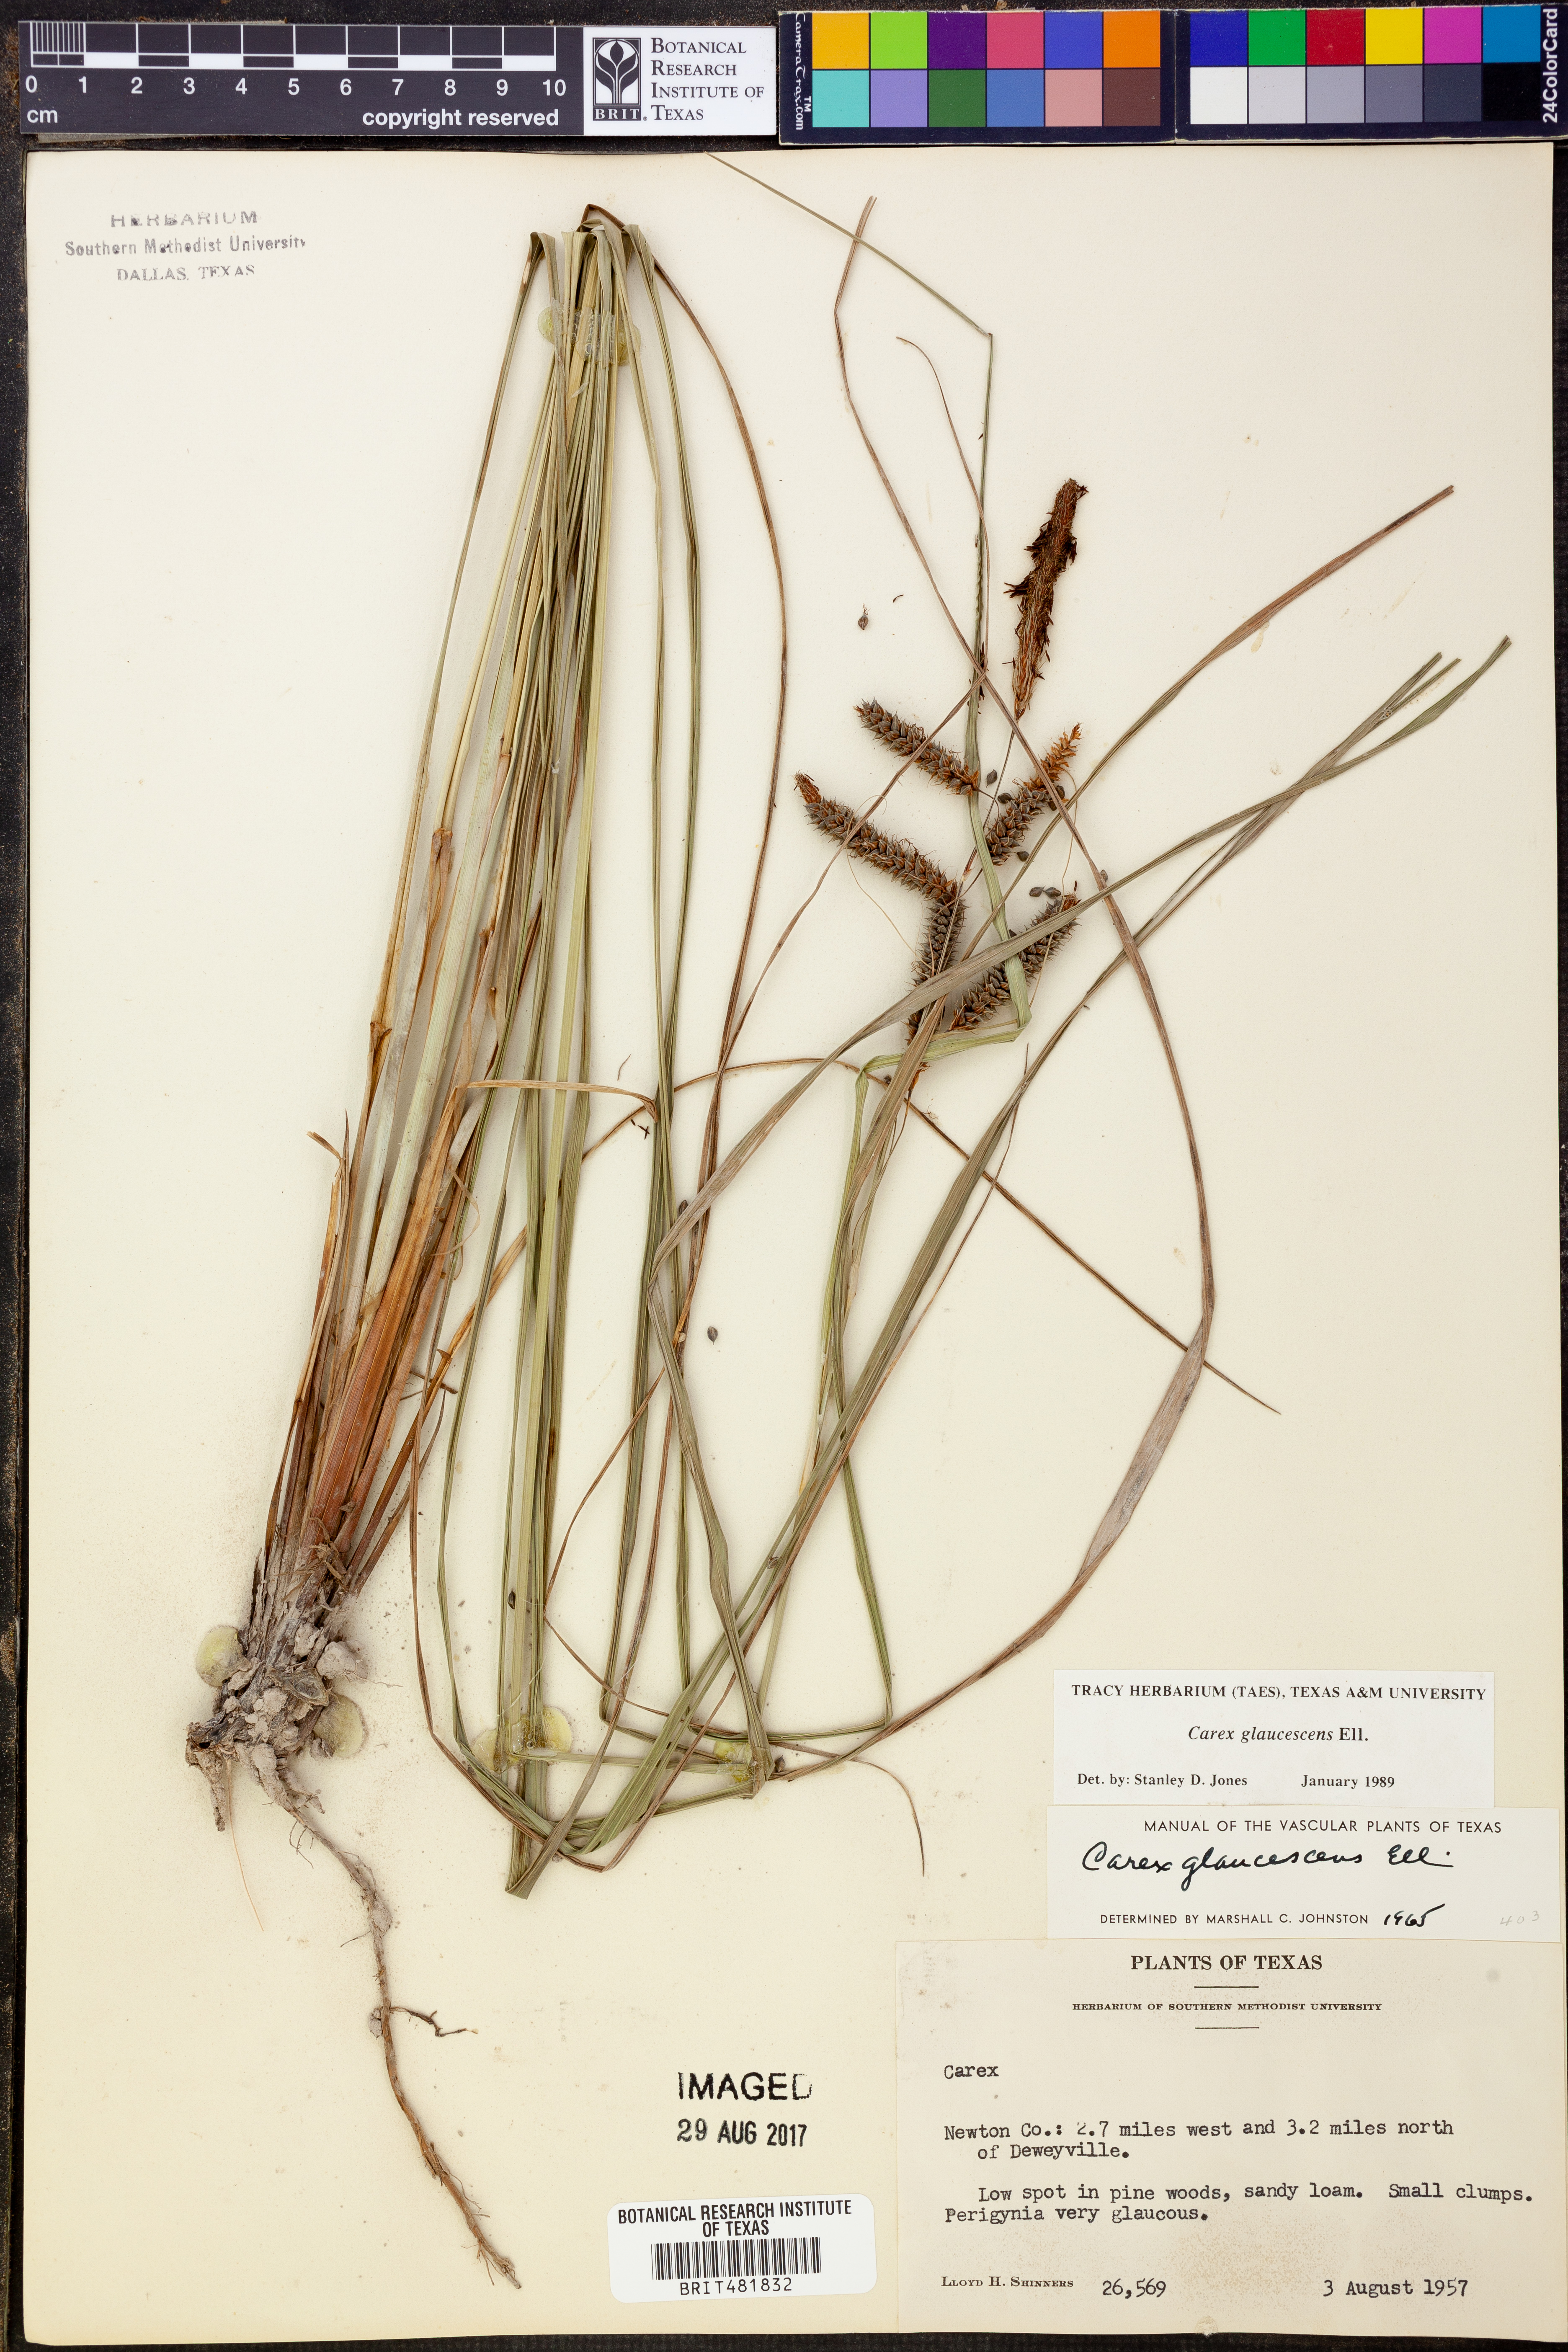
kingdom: Plantae
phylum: Tracheophyta
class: Liliopsida
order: Poales
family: Cyperaceae
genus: Carex
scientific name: Carex glaucescens
